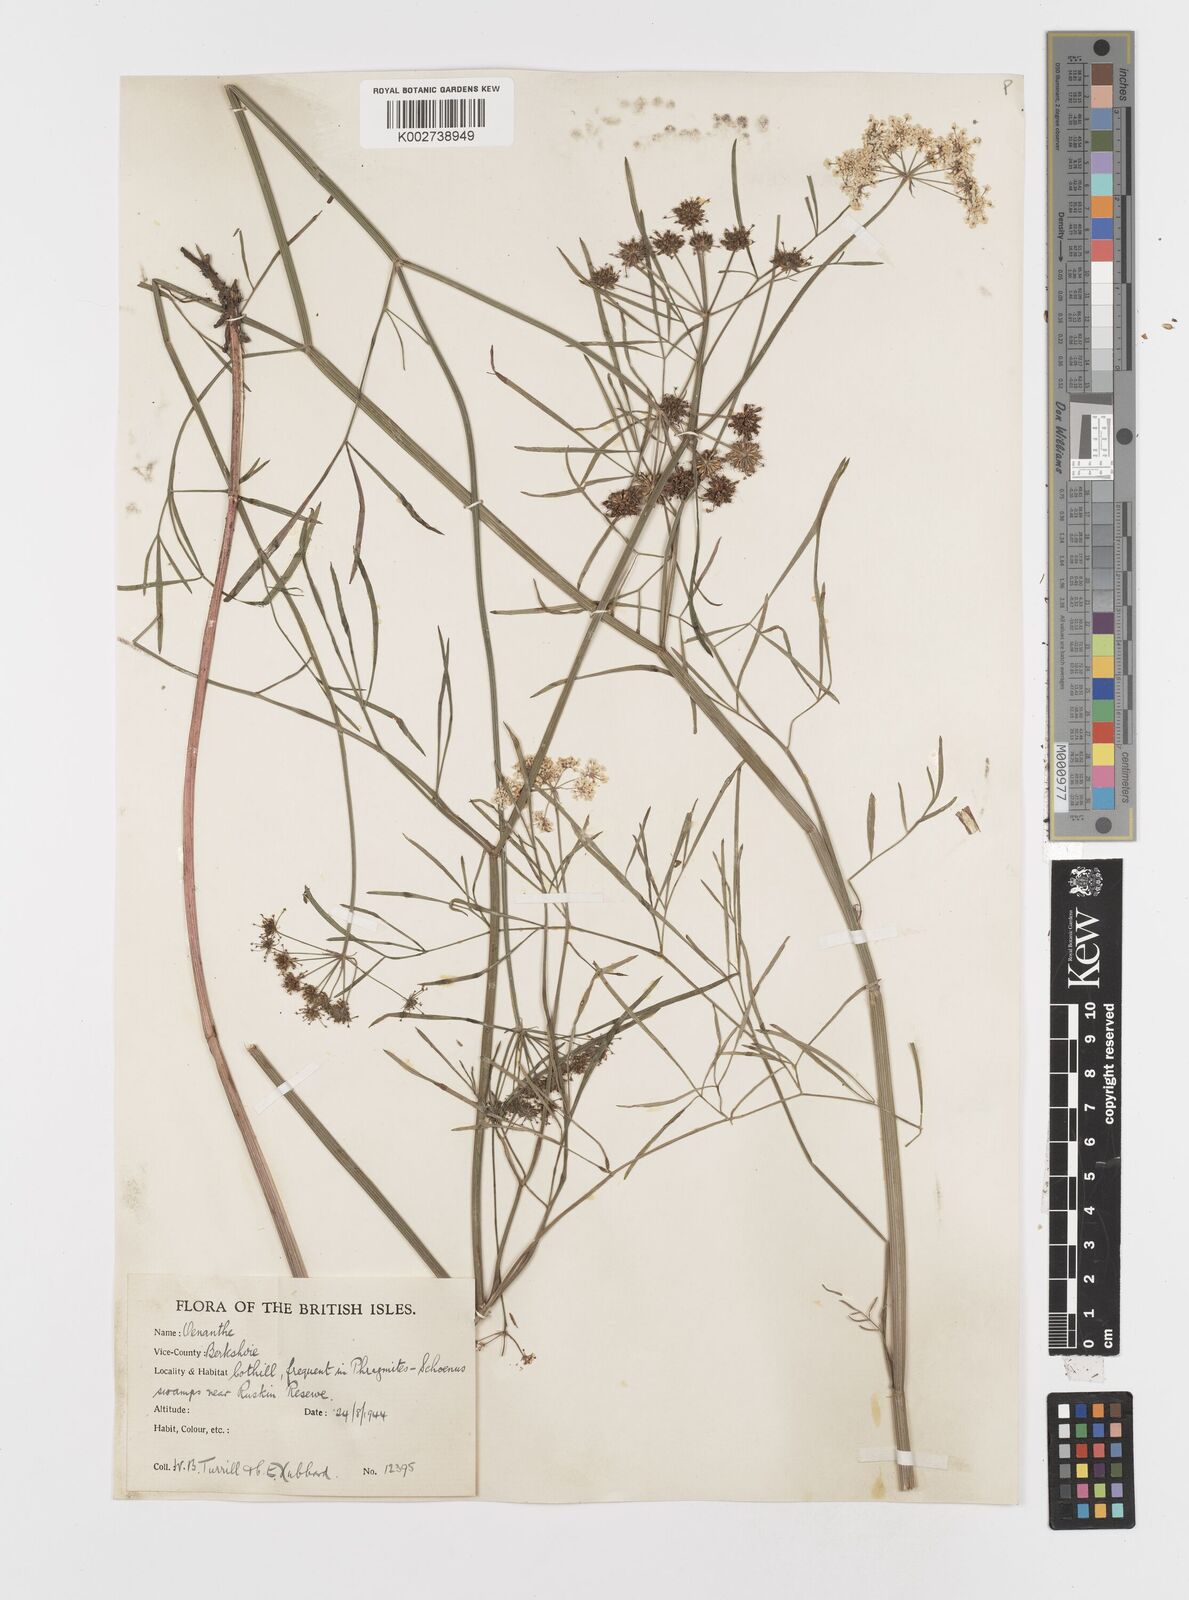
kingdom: Plantae
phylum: Tracheophyta
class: Magnoliopsida
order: Apiales
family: Apiaceae
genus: Oenanthe
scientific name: Oenanthe lachenalii
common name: Parsley water-dropwort
